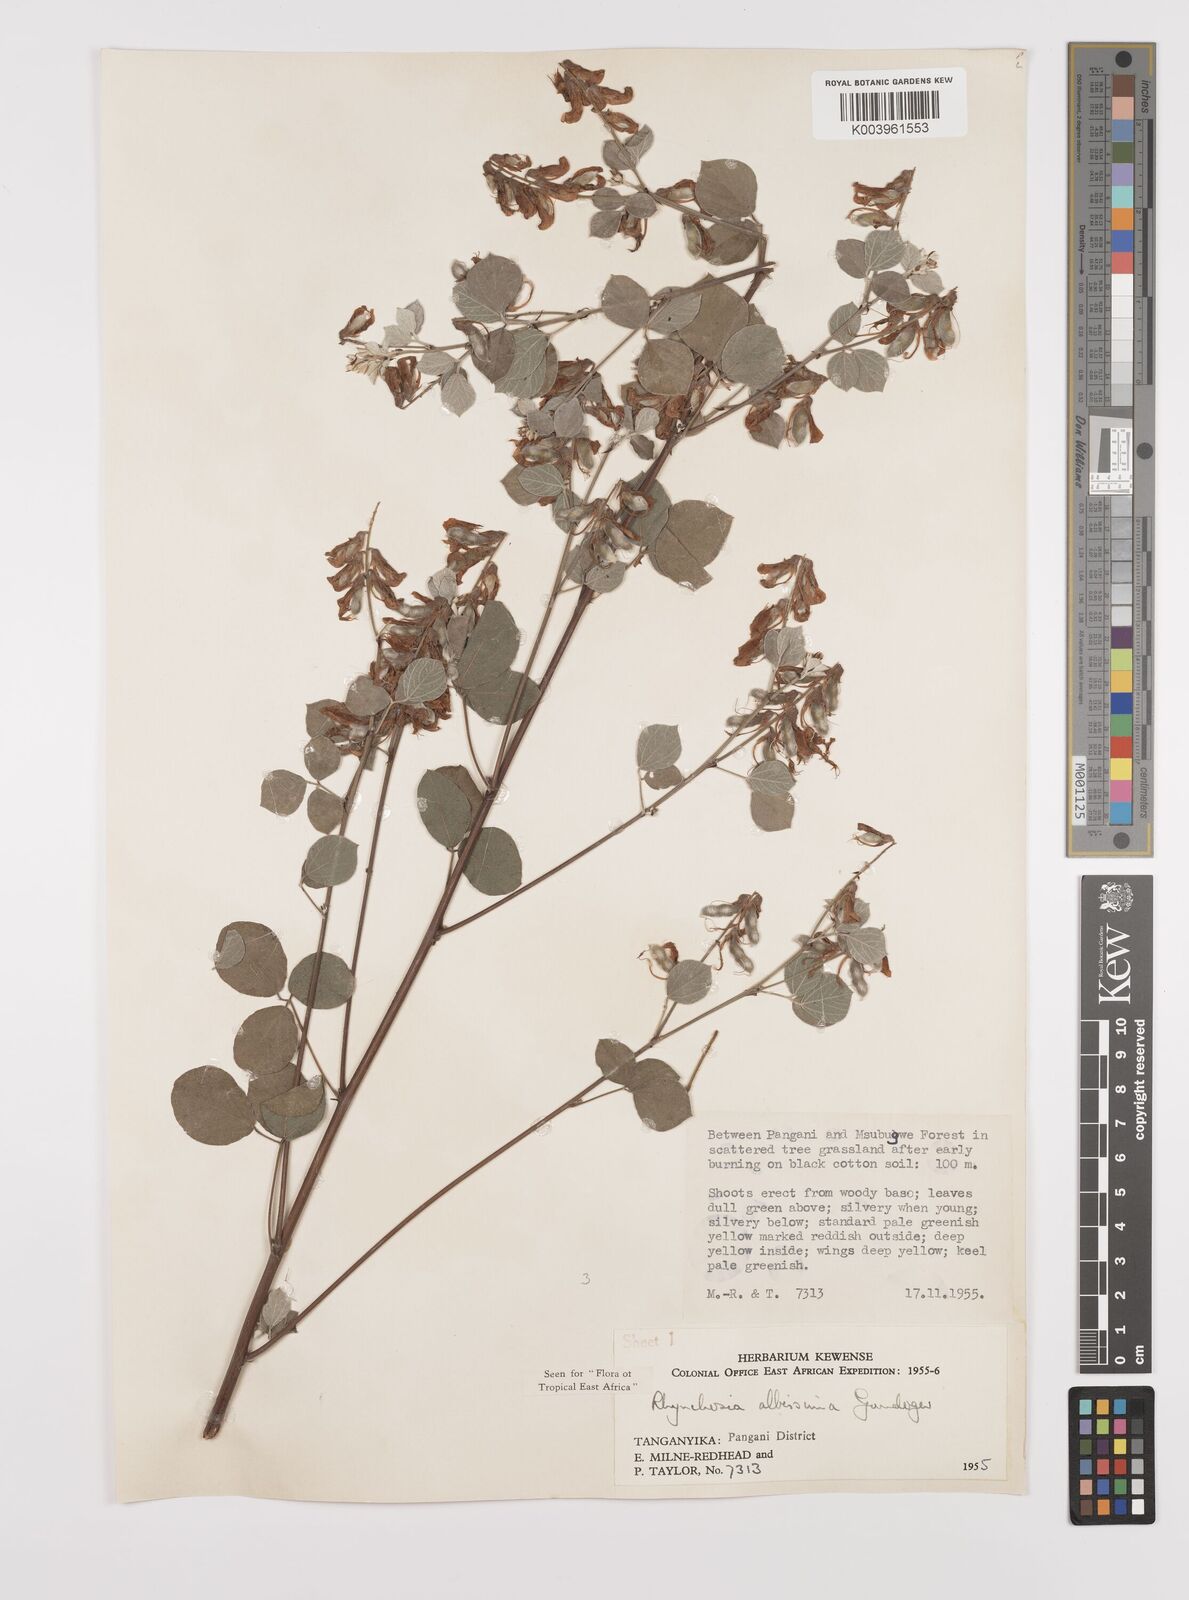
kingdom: Plantae
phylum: Tracheophyta
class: Magnoliopsida
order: Fabales
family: Fabaceae
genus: Rhynchosia
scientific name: Rhynchosia albissima
